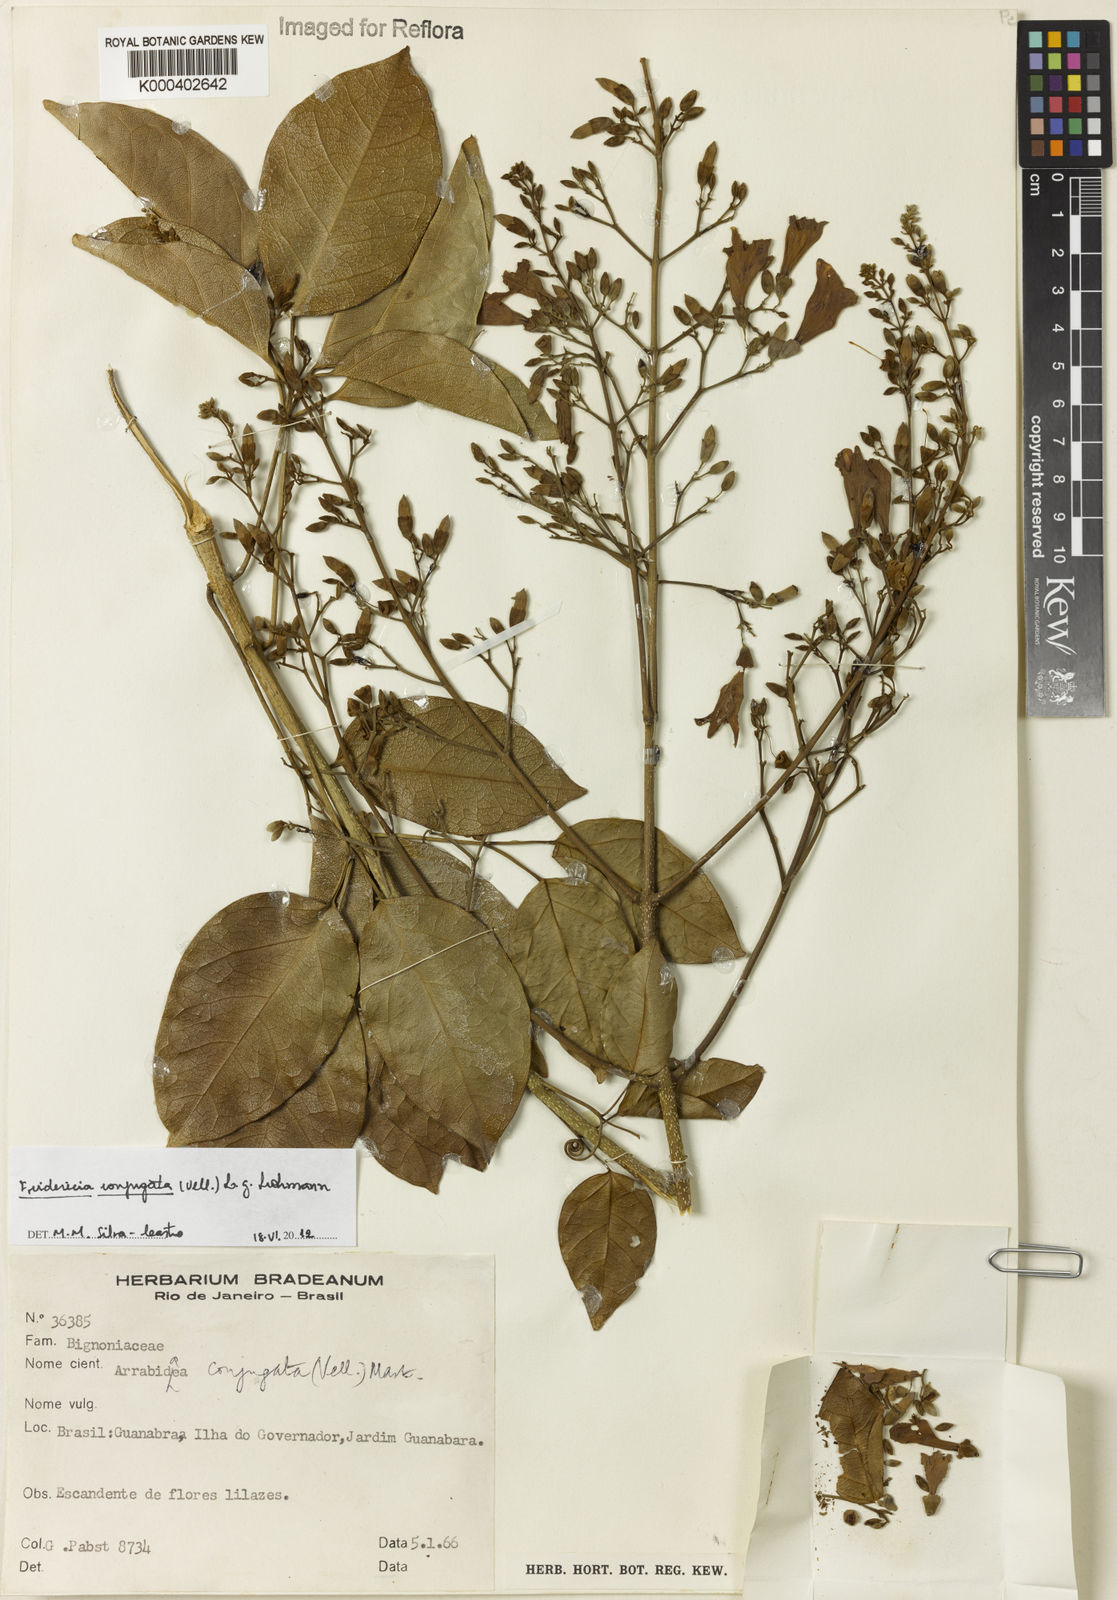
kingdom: Plantae
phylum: Tracheophyta
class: Magnoliopsida
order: Lamiales
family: Bignoniaceae
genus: Fridericia
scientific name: Fridericia conjugata
